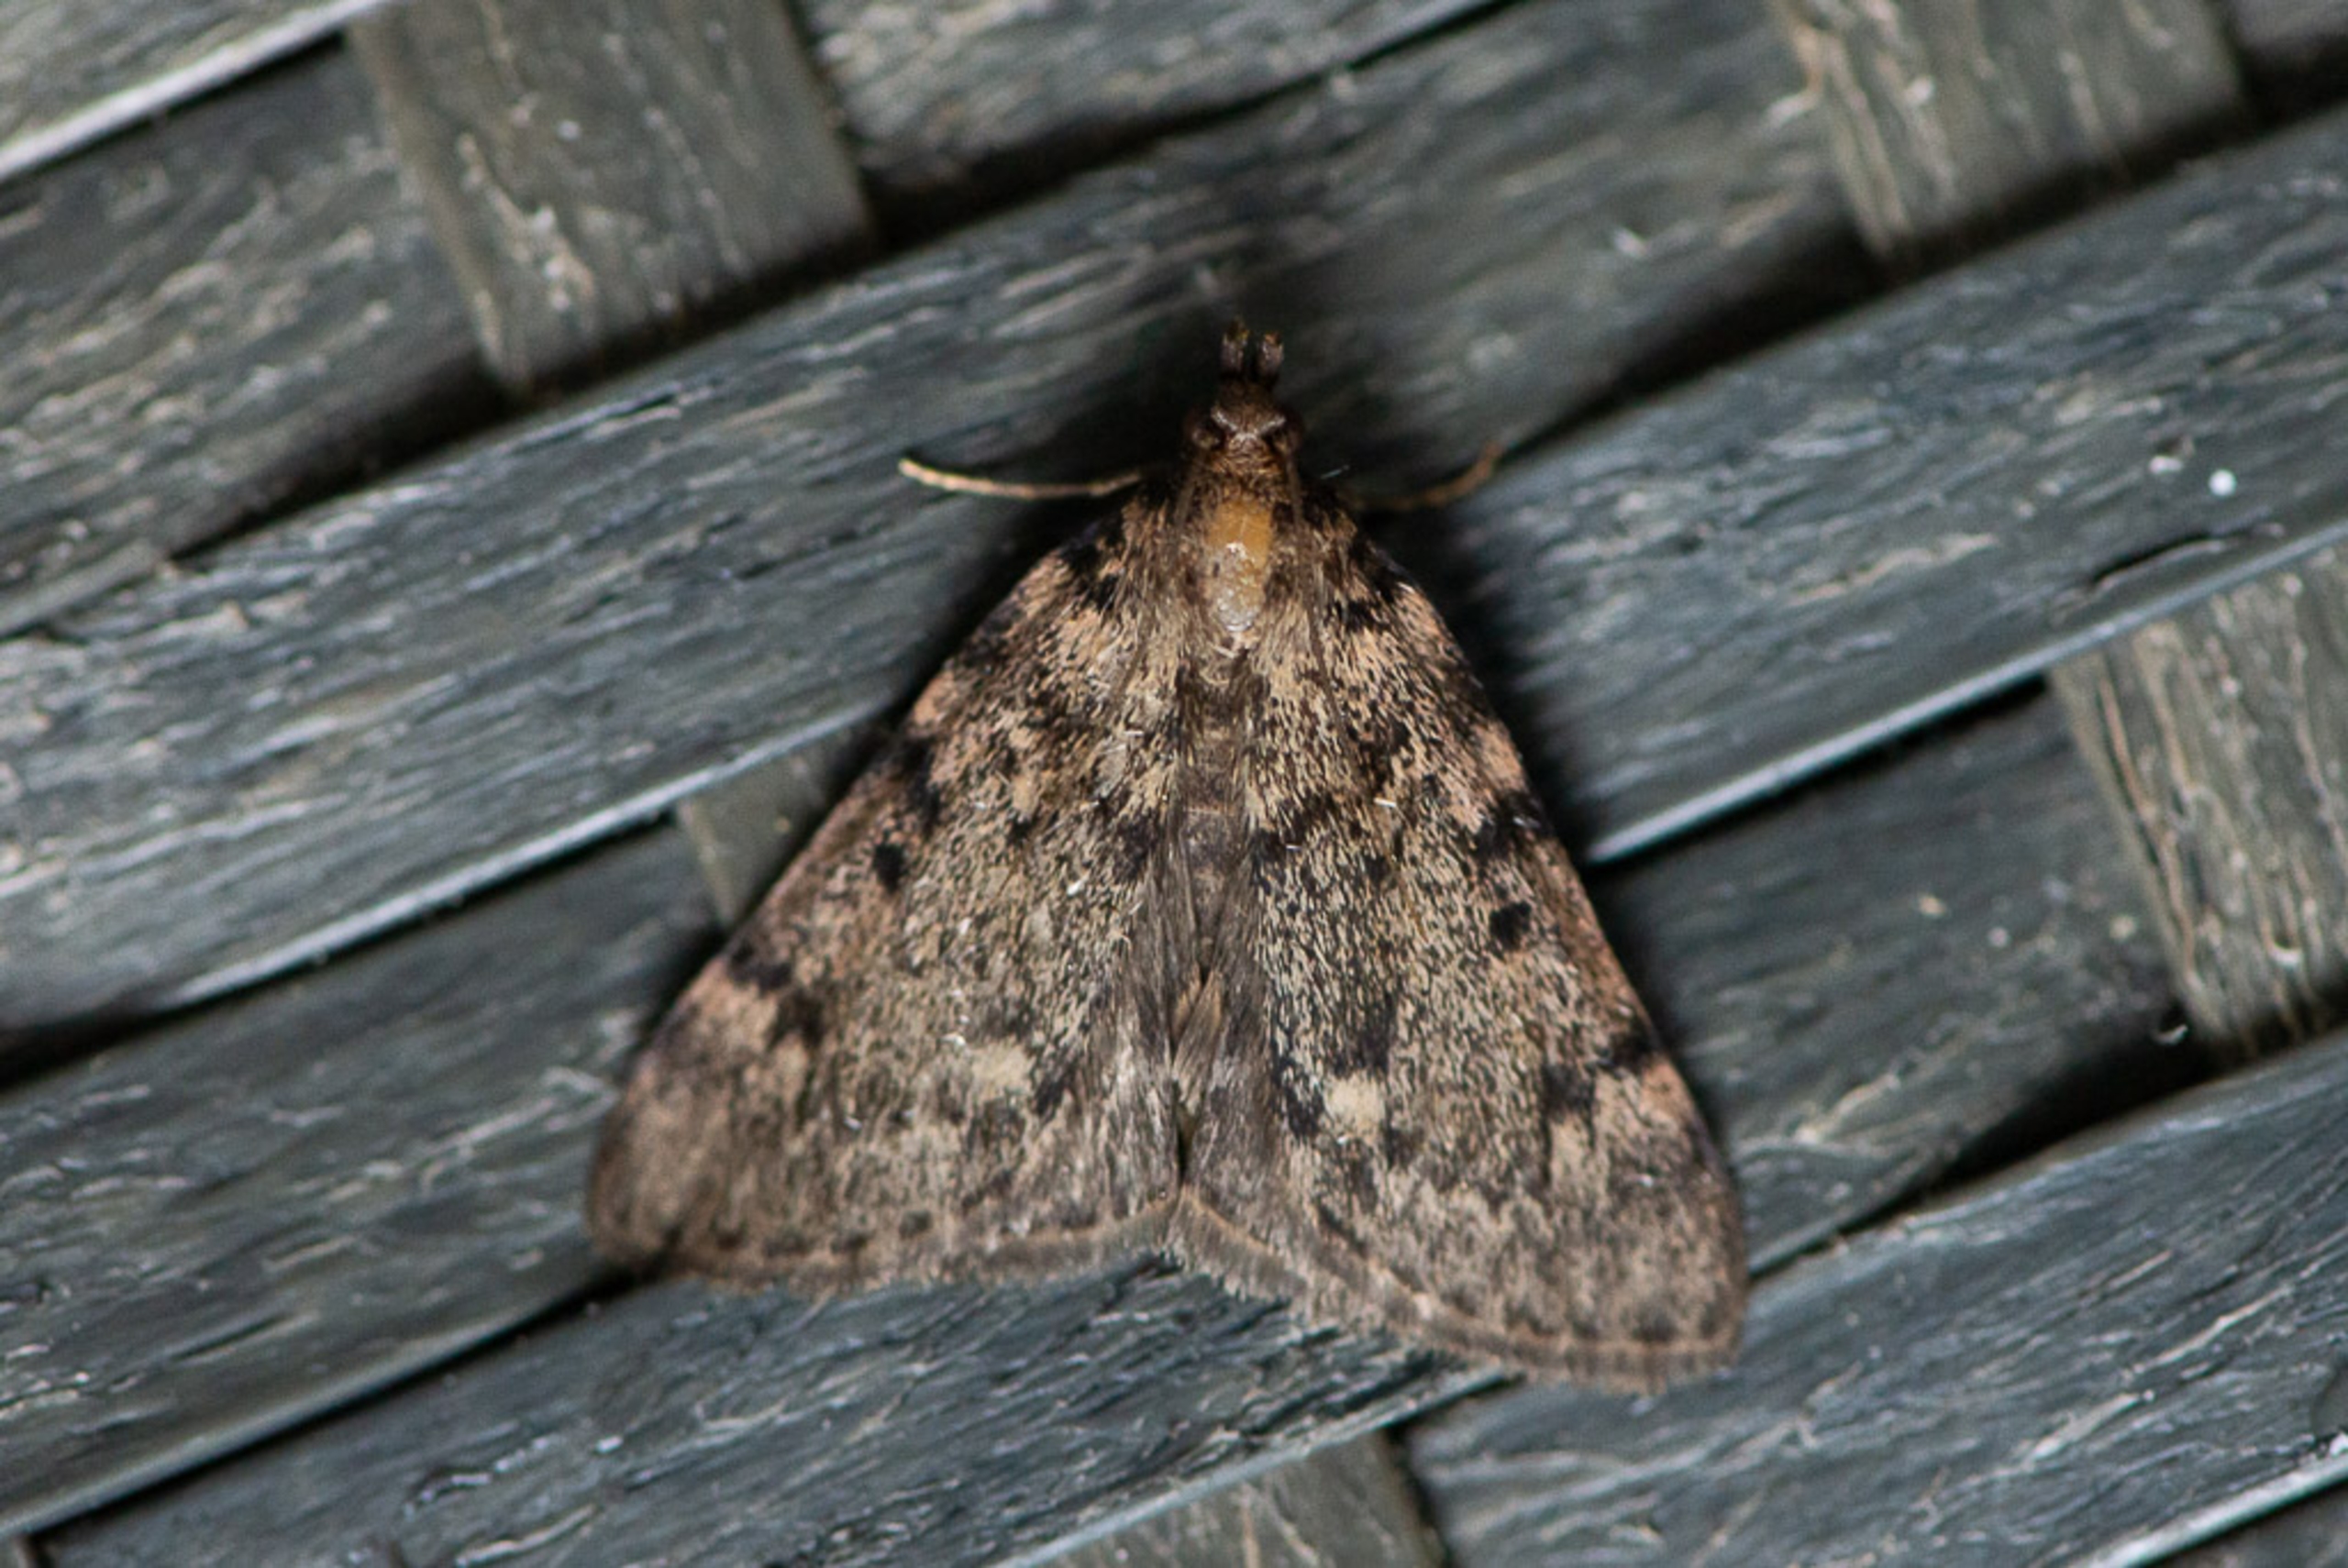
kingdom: Animalia
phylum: Arthropoda
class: Insecta
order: Lepidoptera
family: Pyralidae
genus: Aglossa
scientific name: Aglossa pinguinalis
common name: Fedtmøl
